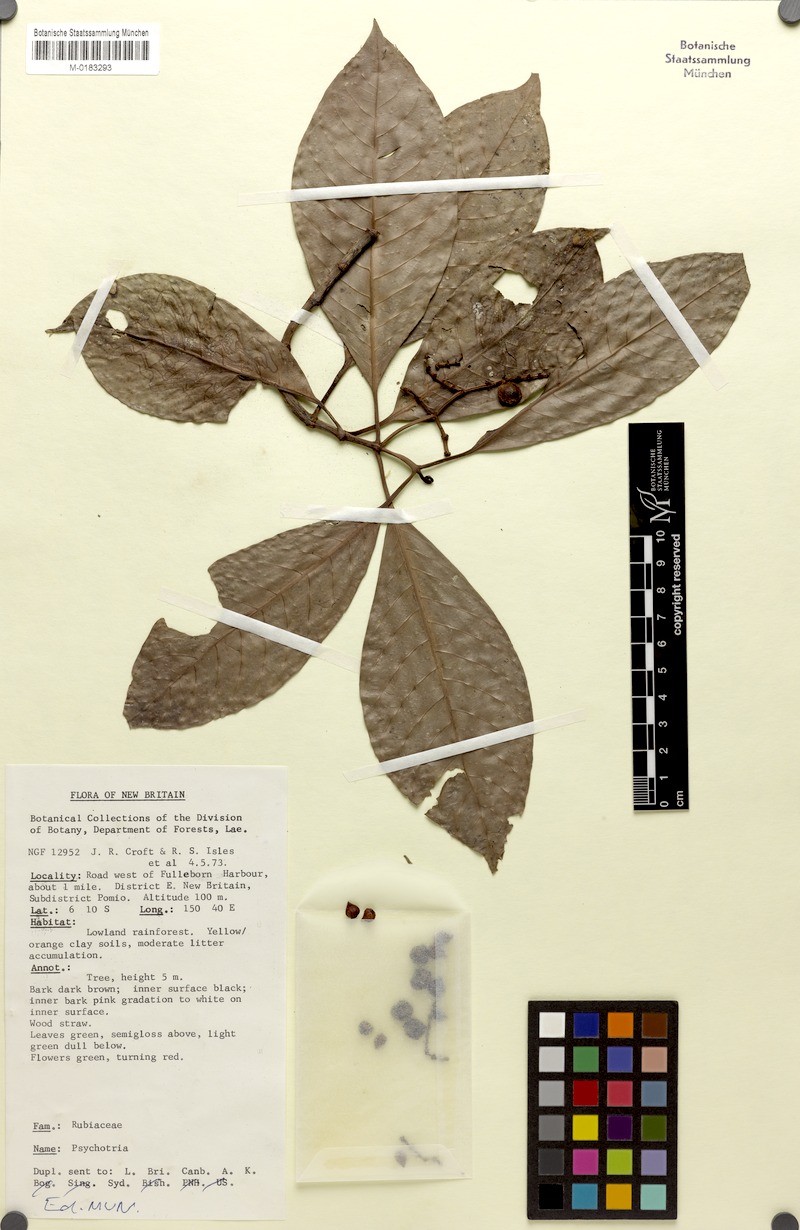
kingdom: Plantae
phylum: Tracheophyta
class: Magnoliopsida
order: Gentianales
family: Rubiaceae
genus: Psychotria
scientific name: Psychotria leleana
